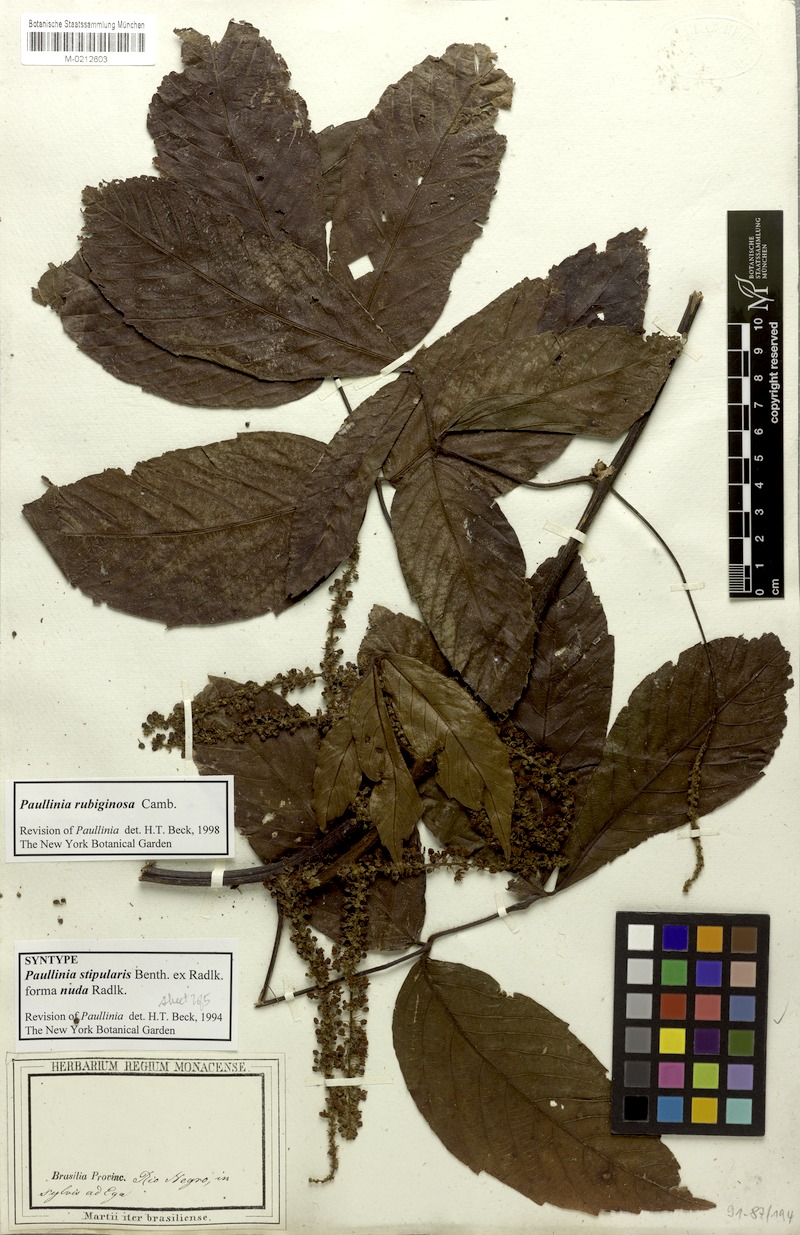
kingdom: Plantae
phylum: Tracheophyta
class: Magnoliopsida
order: Sapindales
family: Sapindaceae
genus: Paullinia
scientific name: Paullinia rubiginosa
